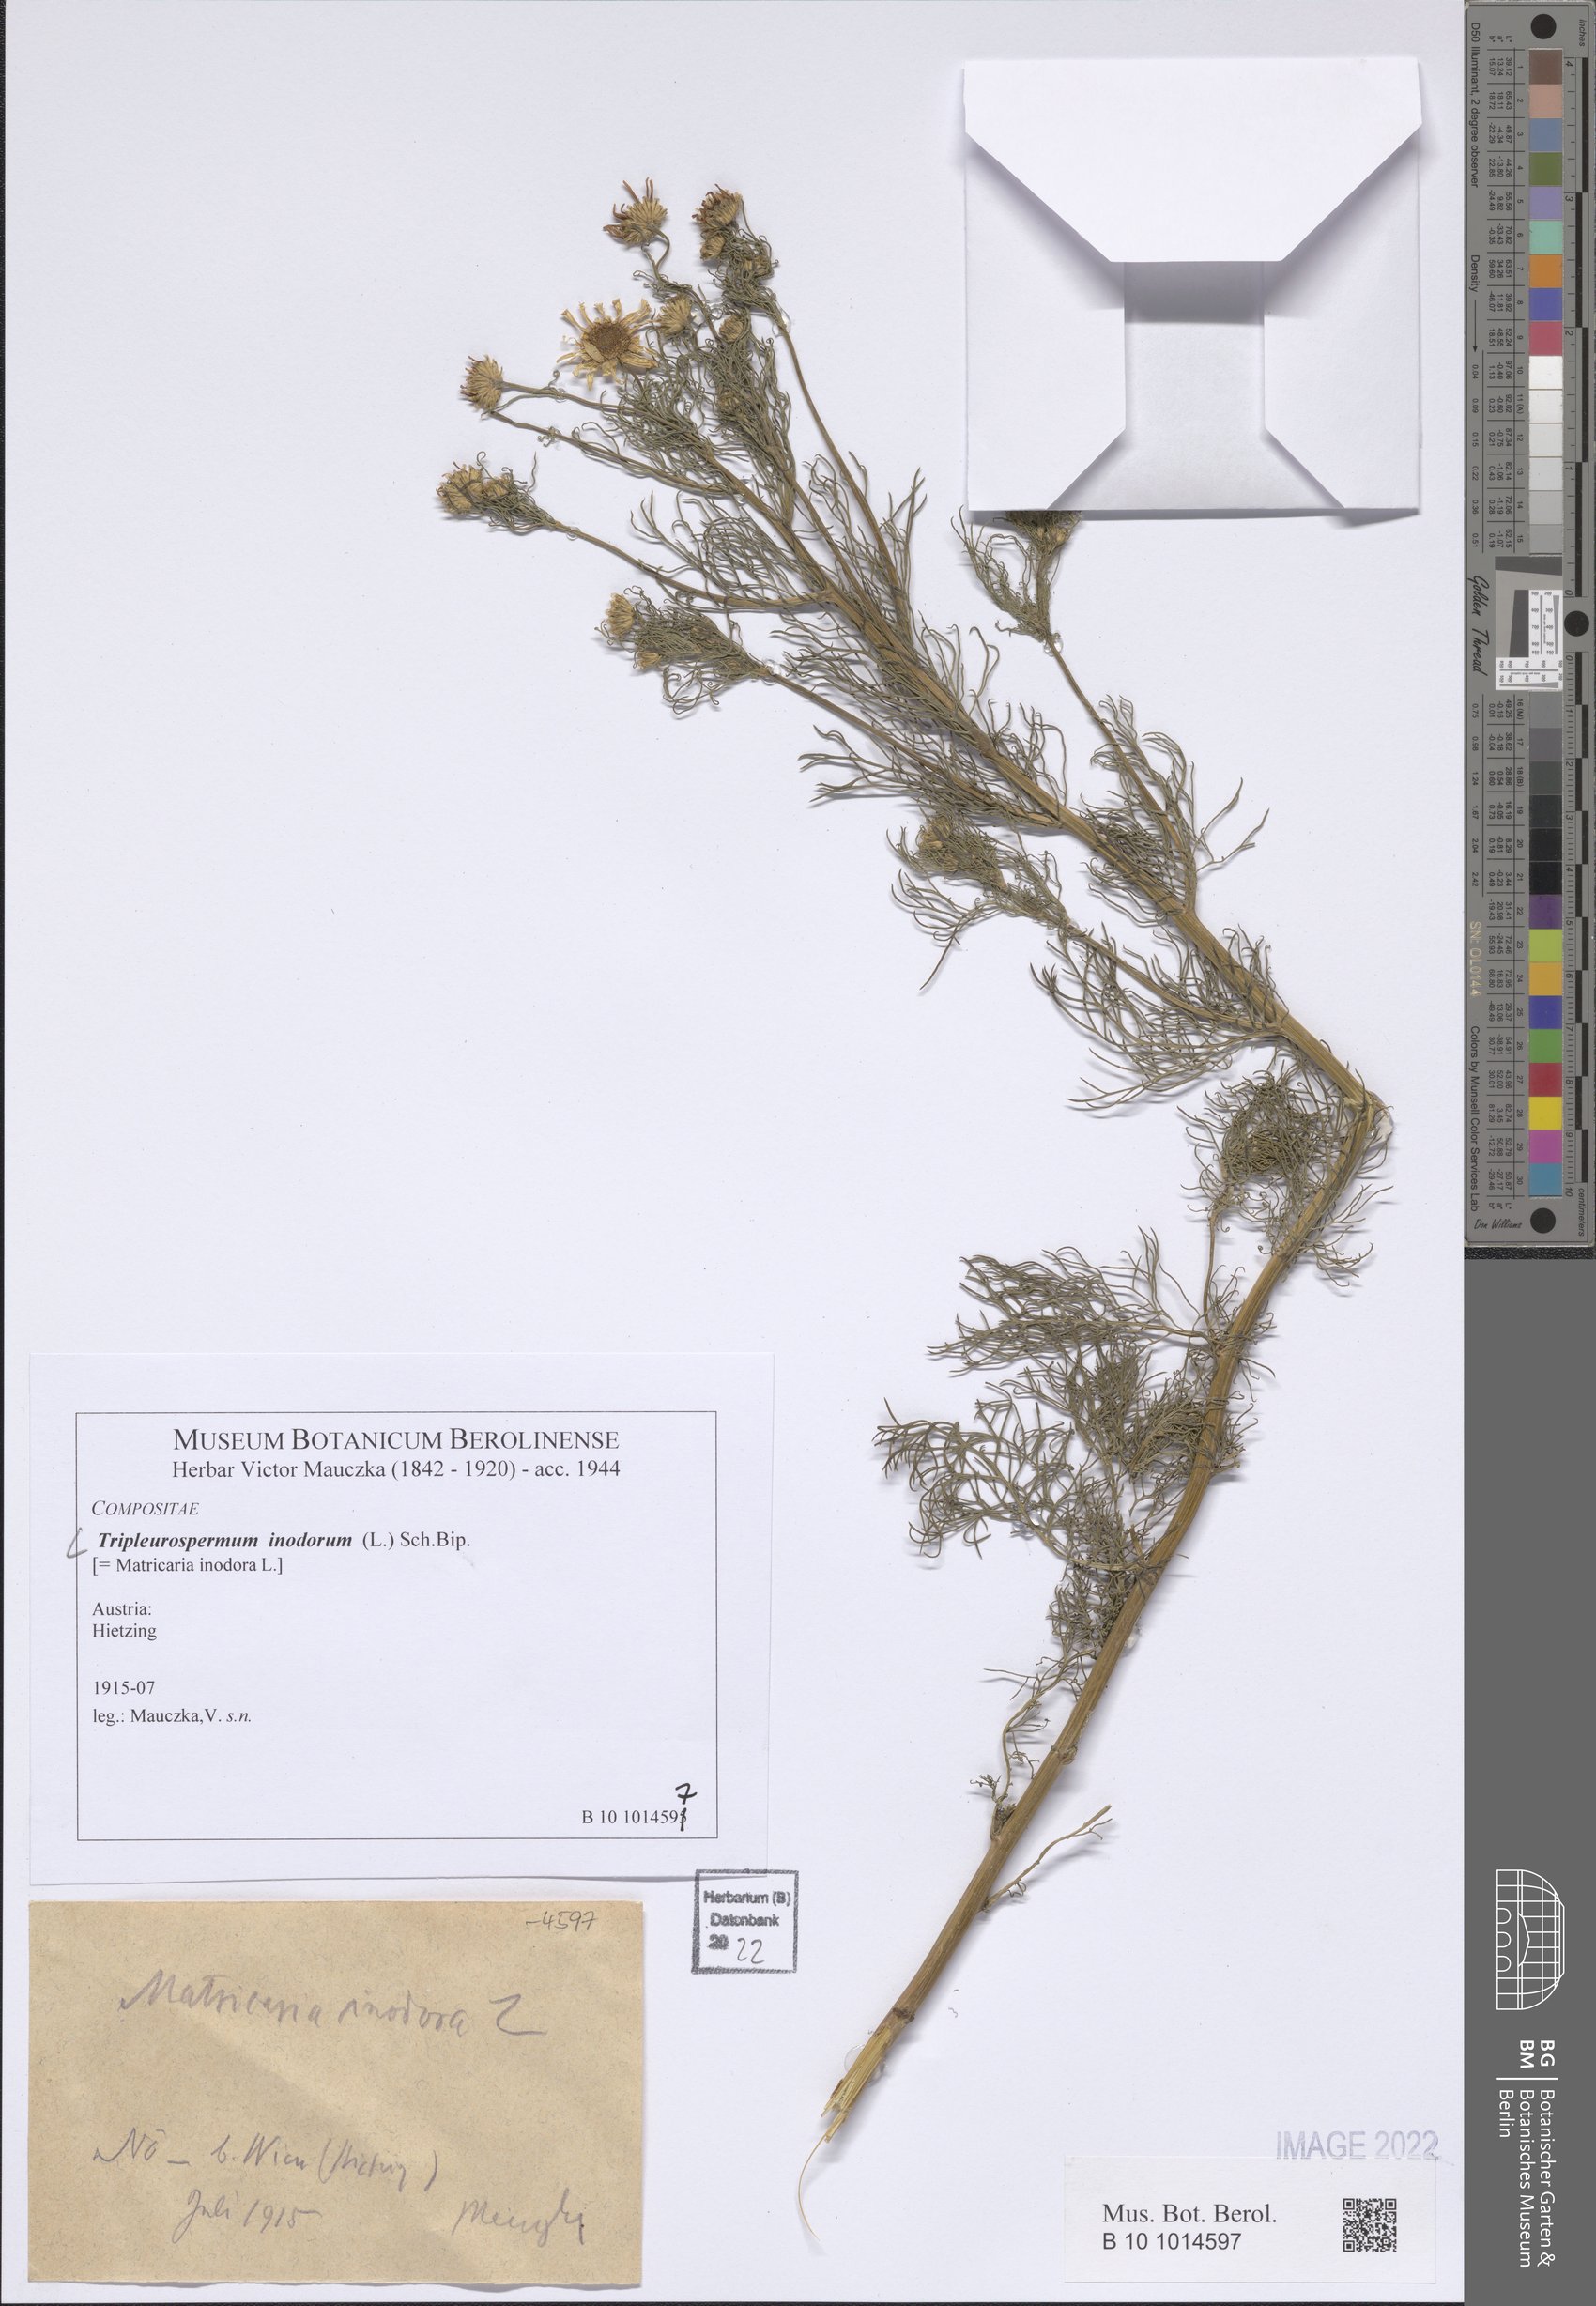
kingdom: Plantae
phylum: Tracheophyta
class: Magnoliopsida
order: Asterales
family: Asteraceae
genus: Tripleurospermum
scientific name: Tripleurospermum inodorum
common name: Scentless mayweed
